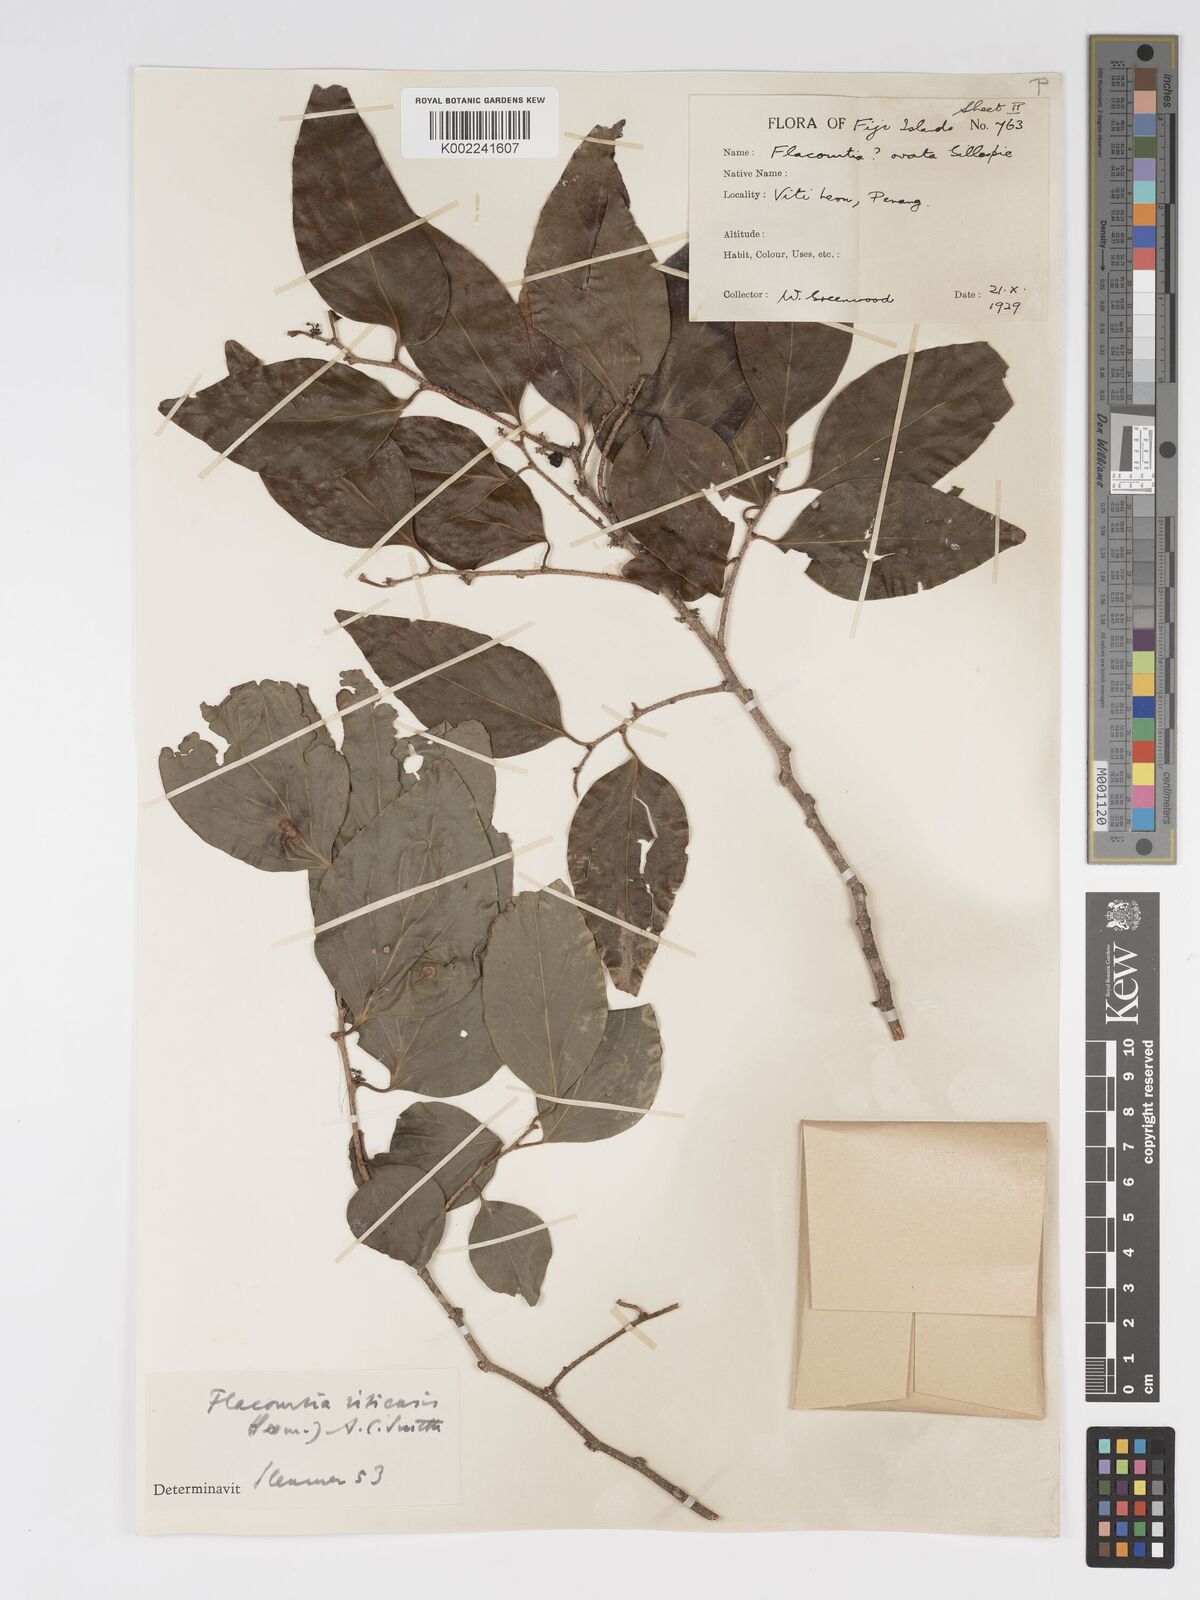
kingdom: Plantae
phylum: Tracheophyta
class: Magnoliopsida
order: Malpighiales
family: Salicaceae
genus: Flacourtia
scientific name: Flacourtia vitiensis
